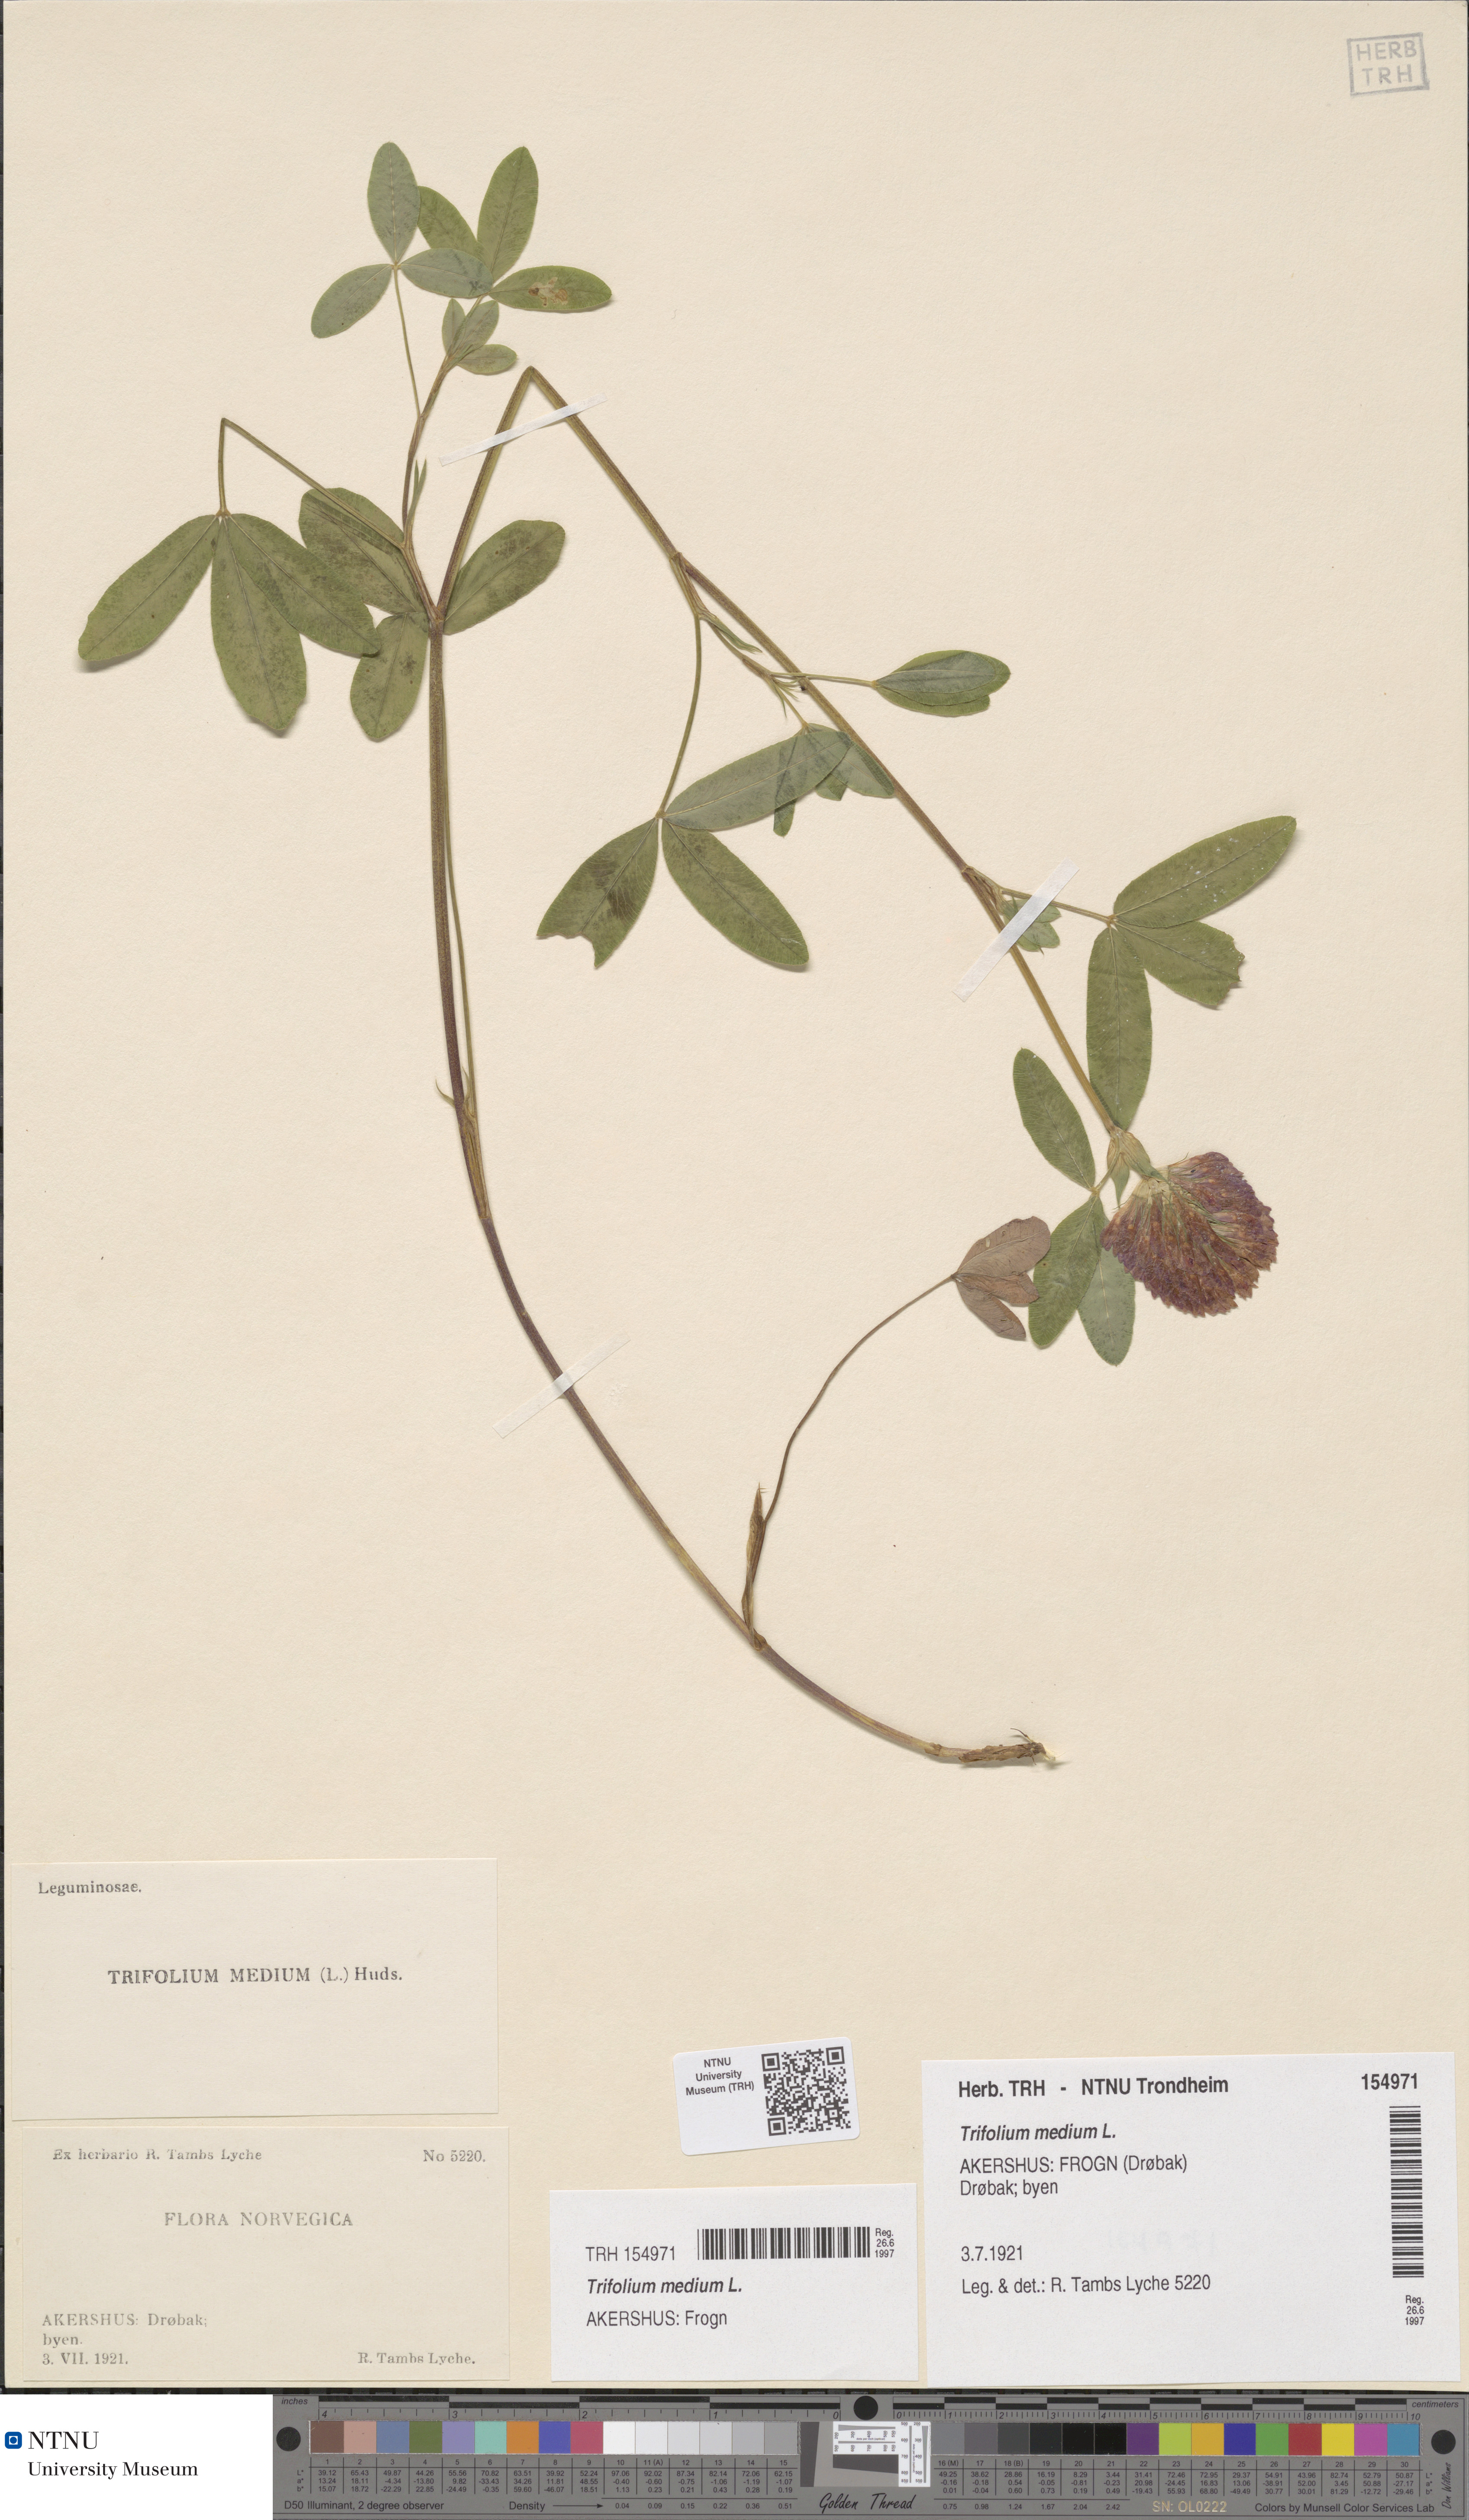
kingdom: Plantae
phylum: Tracheophyta
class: Magnoliopsida
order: Fabales
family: Fabaceae
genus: Trifolium
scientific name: Trifolium medium
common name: Zigzag clover
